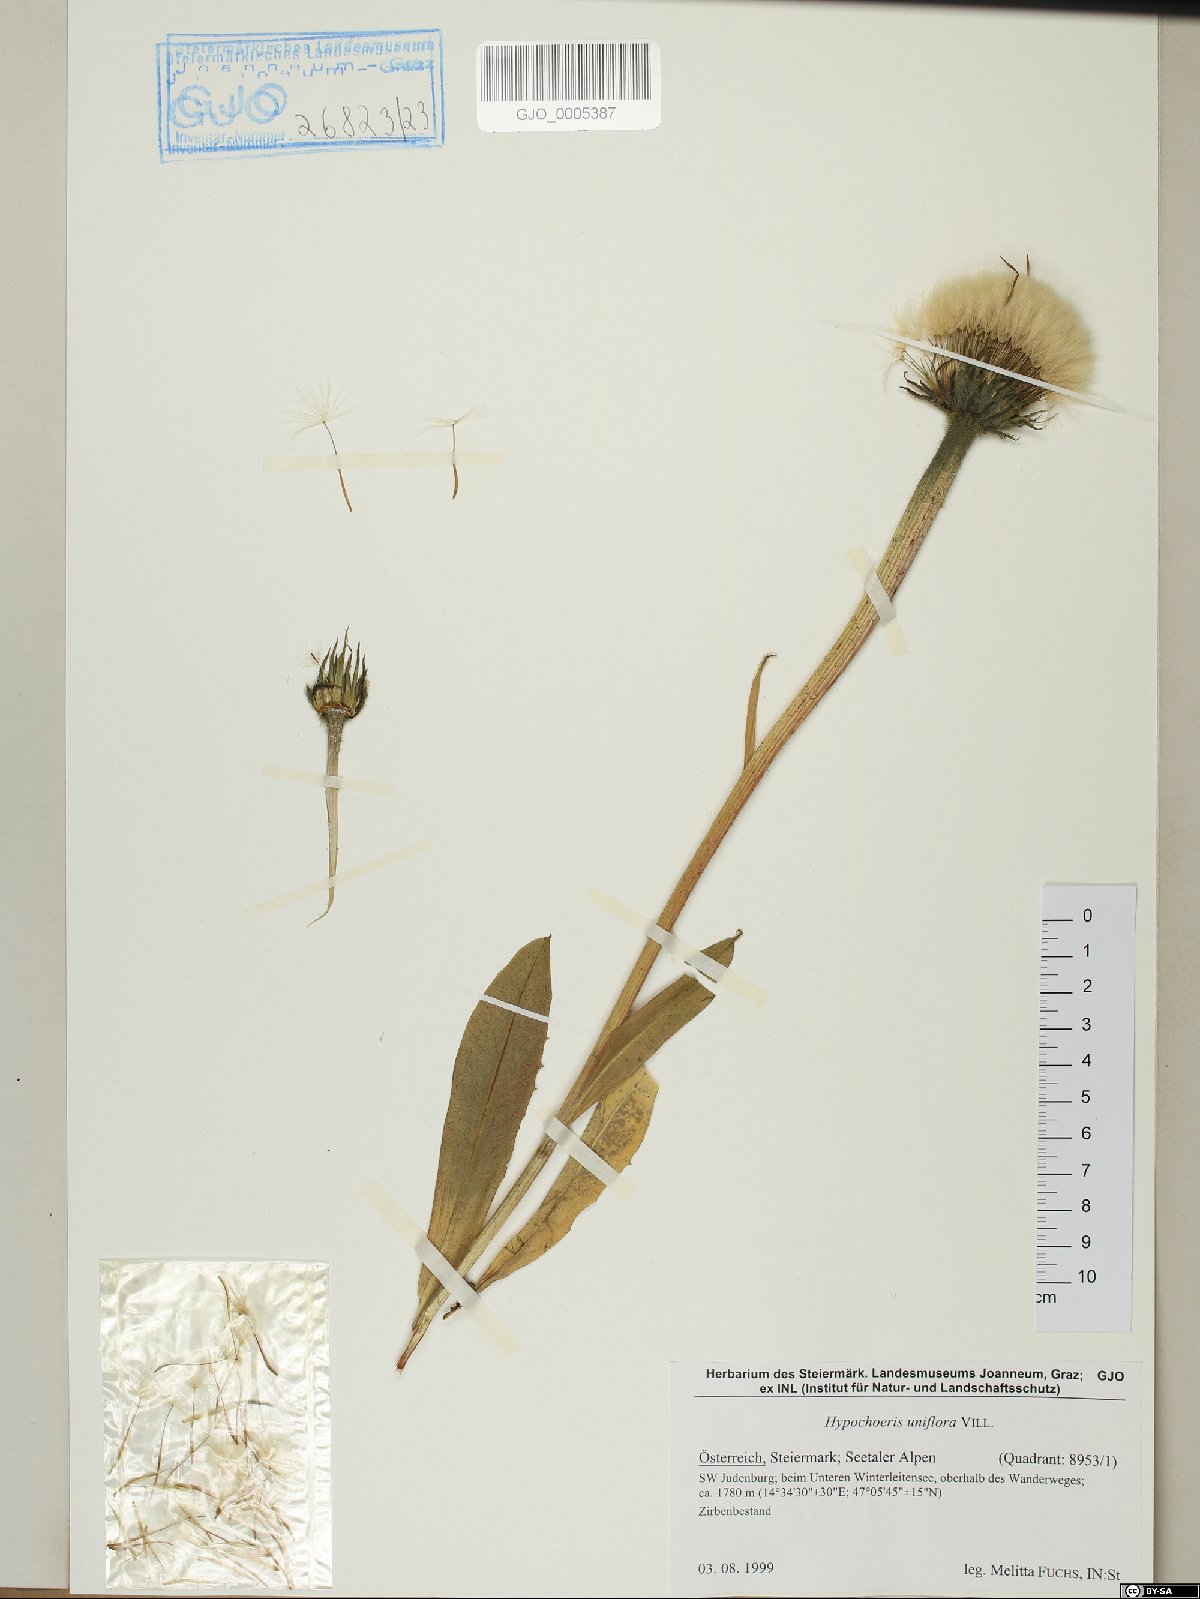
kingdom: Plantae
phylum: Tracheophyta
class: Magnoliopsida
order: Asterales
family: Asteraceae
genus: Trommsdorffia
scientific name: Trommsdorffia uniflora
